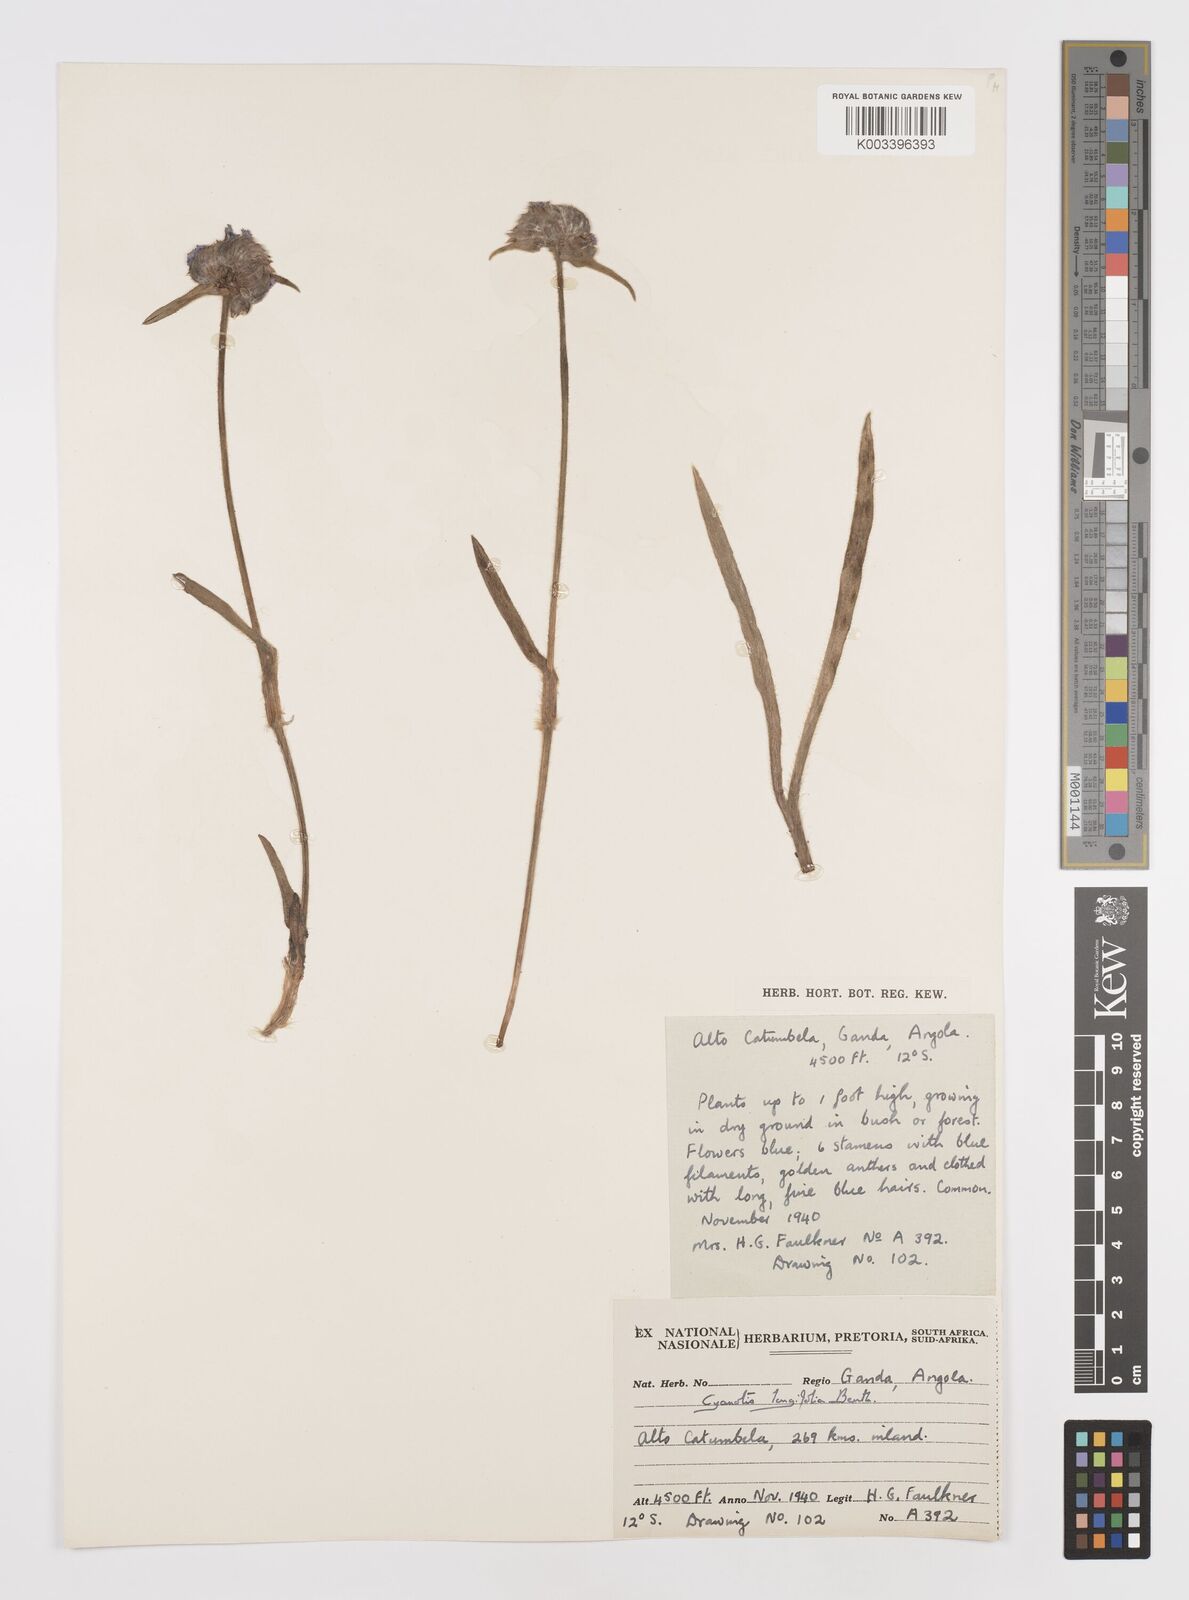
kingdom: Plantae
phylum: Tracheophyta
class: Liliopsida
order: Commelinales
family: Commelinaceae
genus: Cyanotis
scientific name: Cyanotis longifolia
